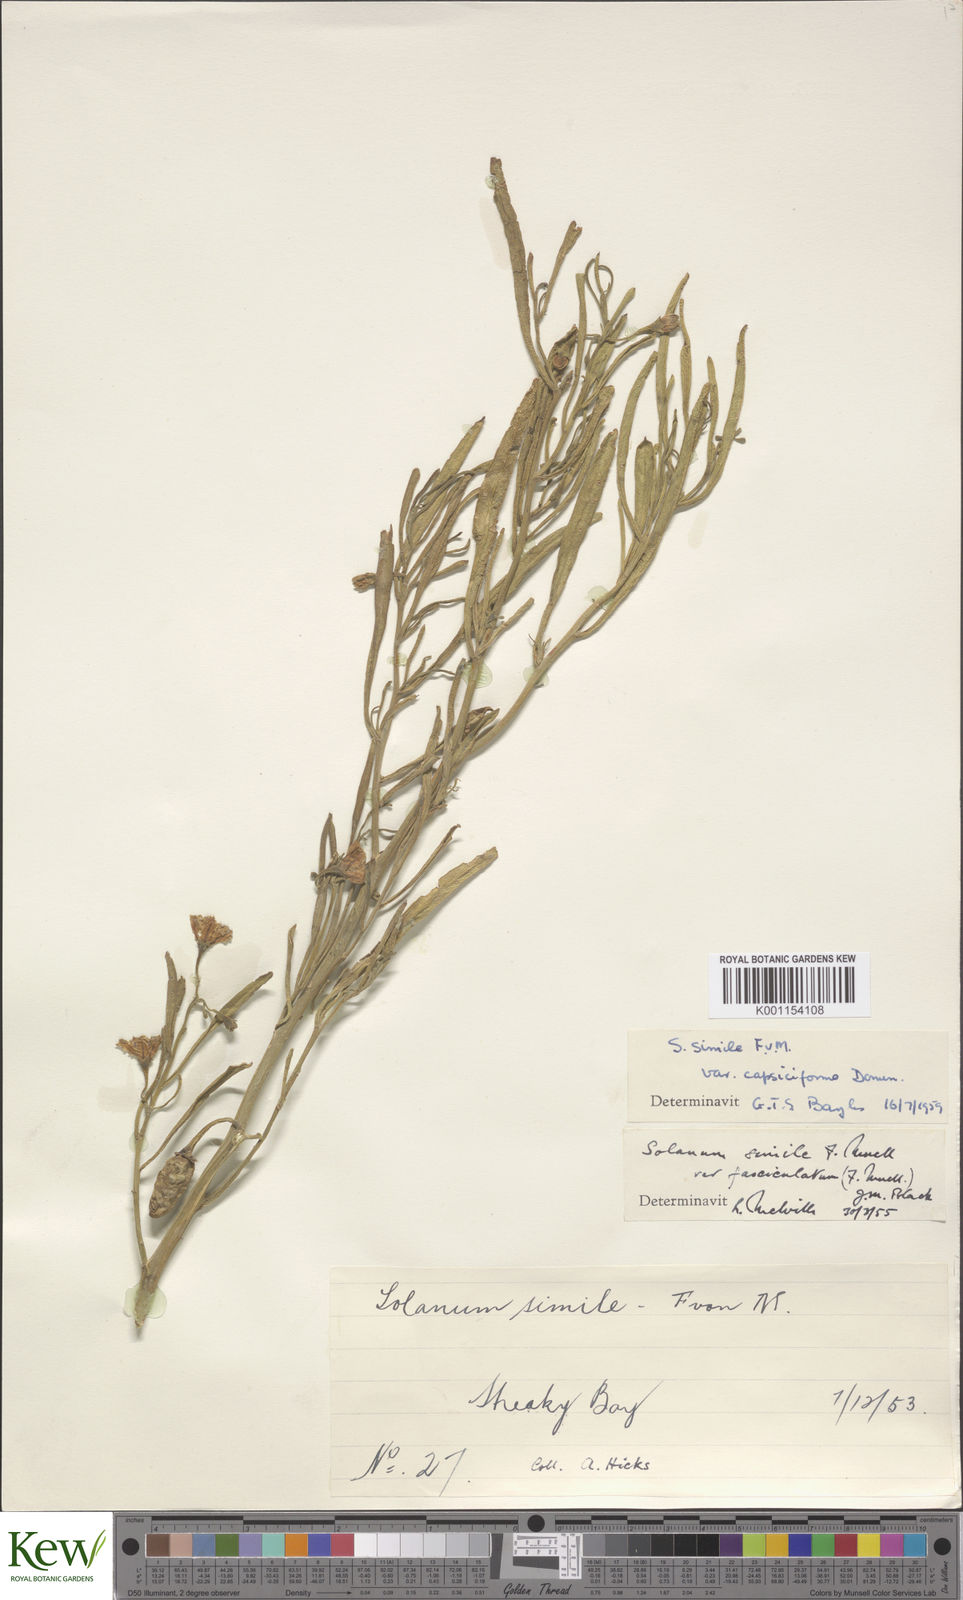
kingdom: Plantae
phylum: Tracheophyta
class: Magnoliopsida
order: Solanales
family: Solanaceae
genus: Solanum
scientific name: Solanum
